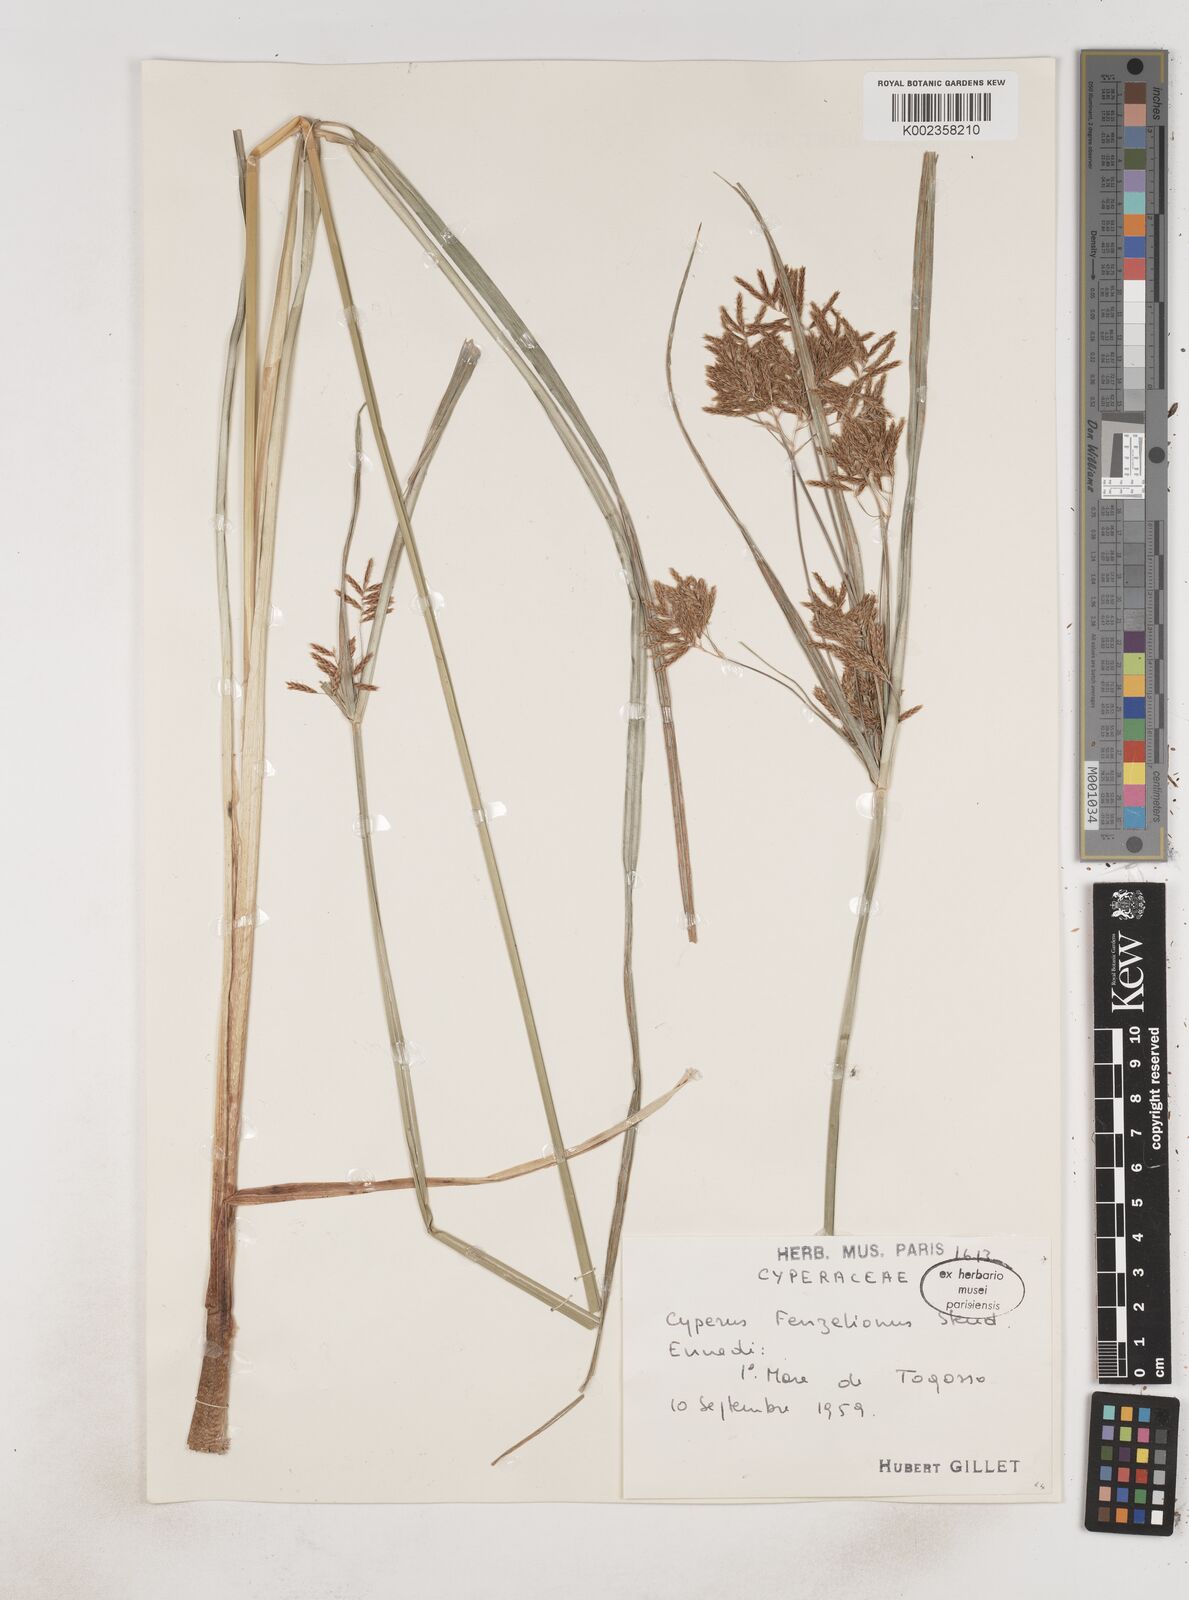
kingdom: Plantae
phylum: Tracheophyta
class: Liliopsida
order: Poales
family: Cyperaceae
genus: Cyperus
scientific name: Cyperus longus
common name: Galingale
